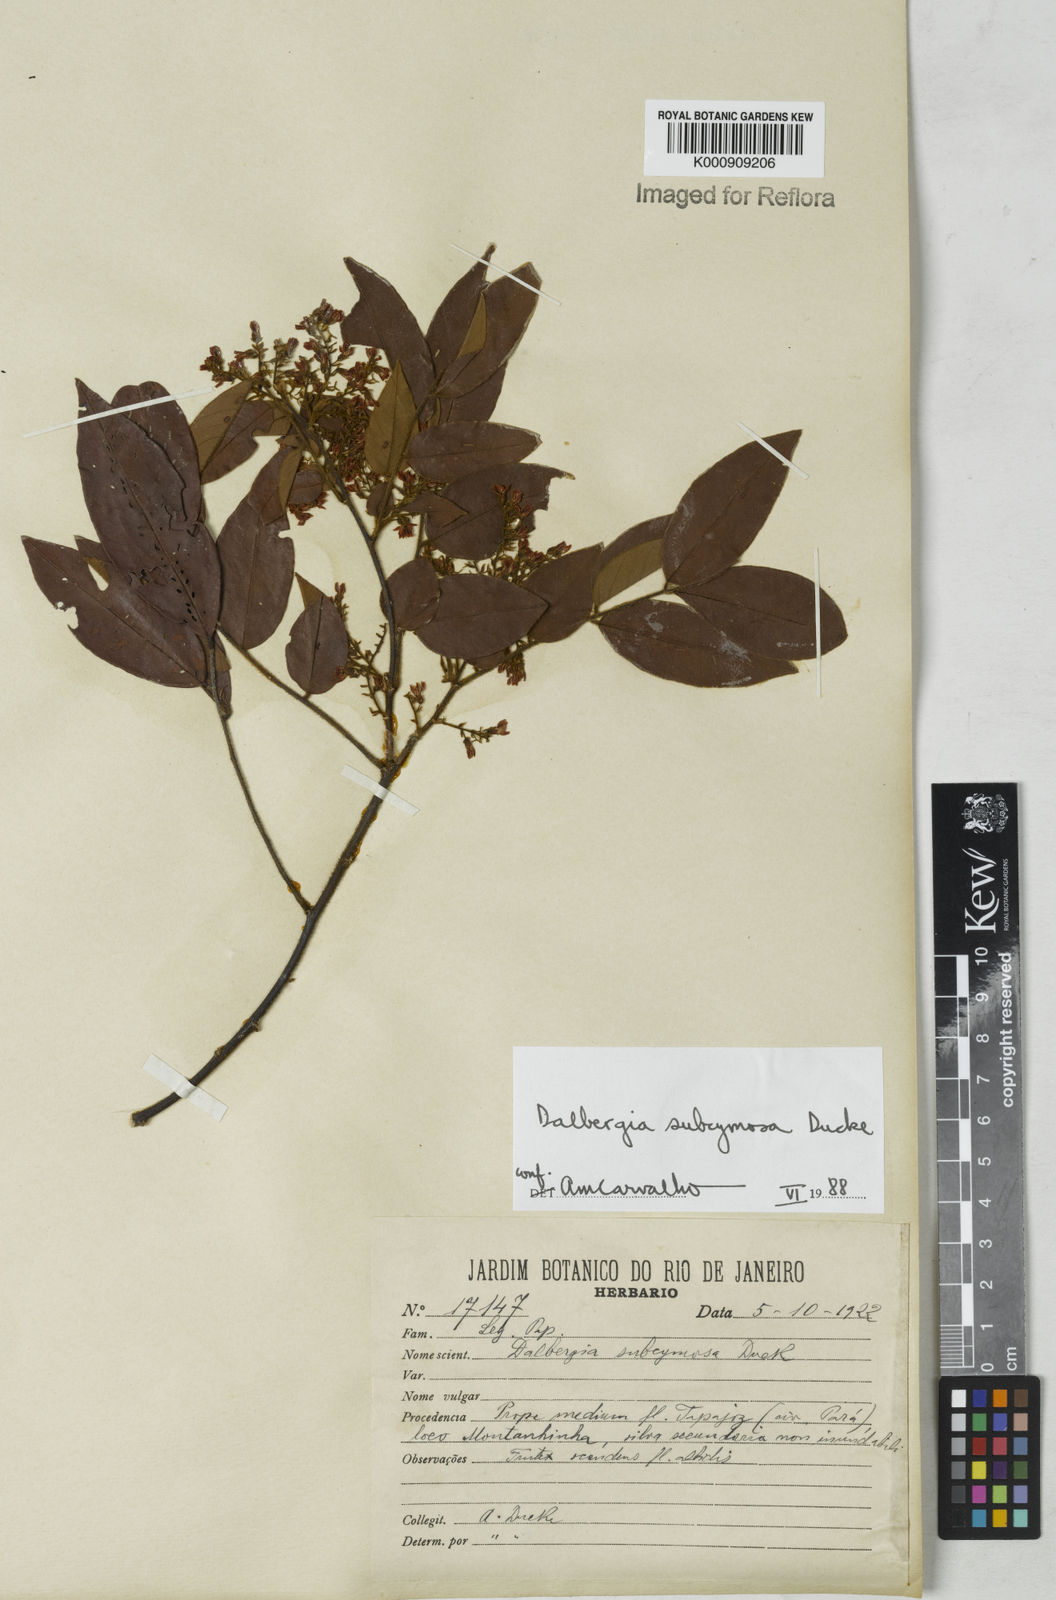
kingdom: Plantae
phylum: Tracheophyta
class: Magnoliopsida
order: Fabales
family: Fabaceae
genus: Dalbergia
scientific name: Dalbergia subcymosa
